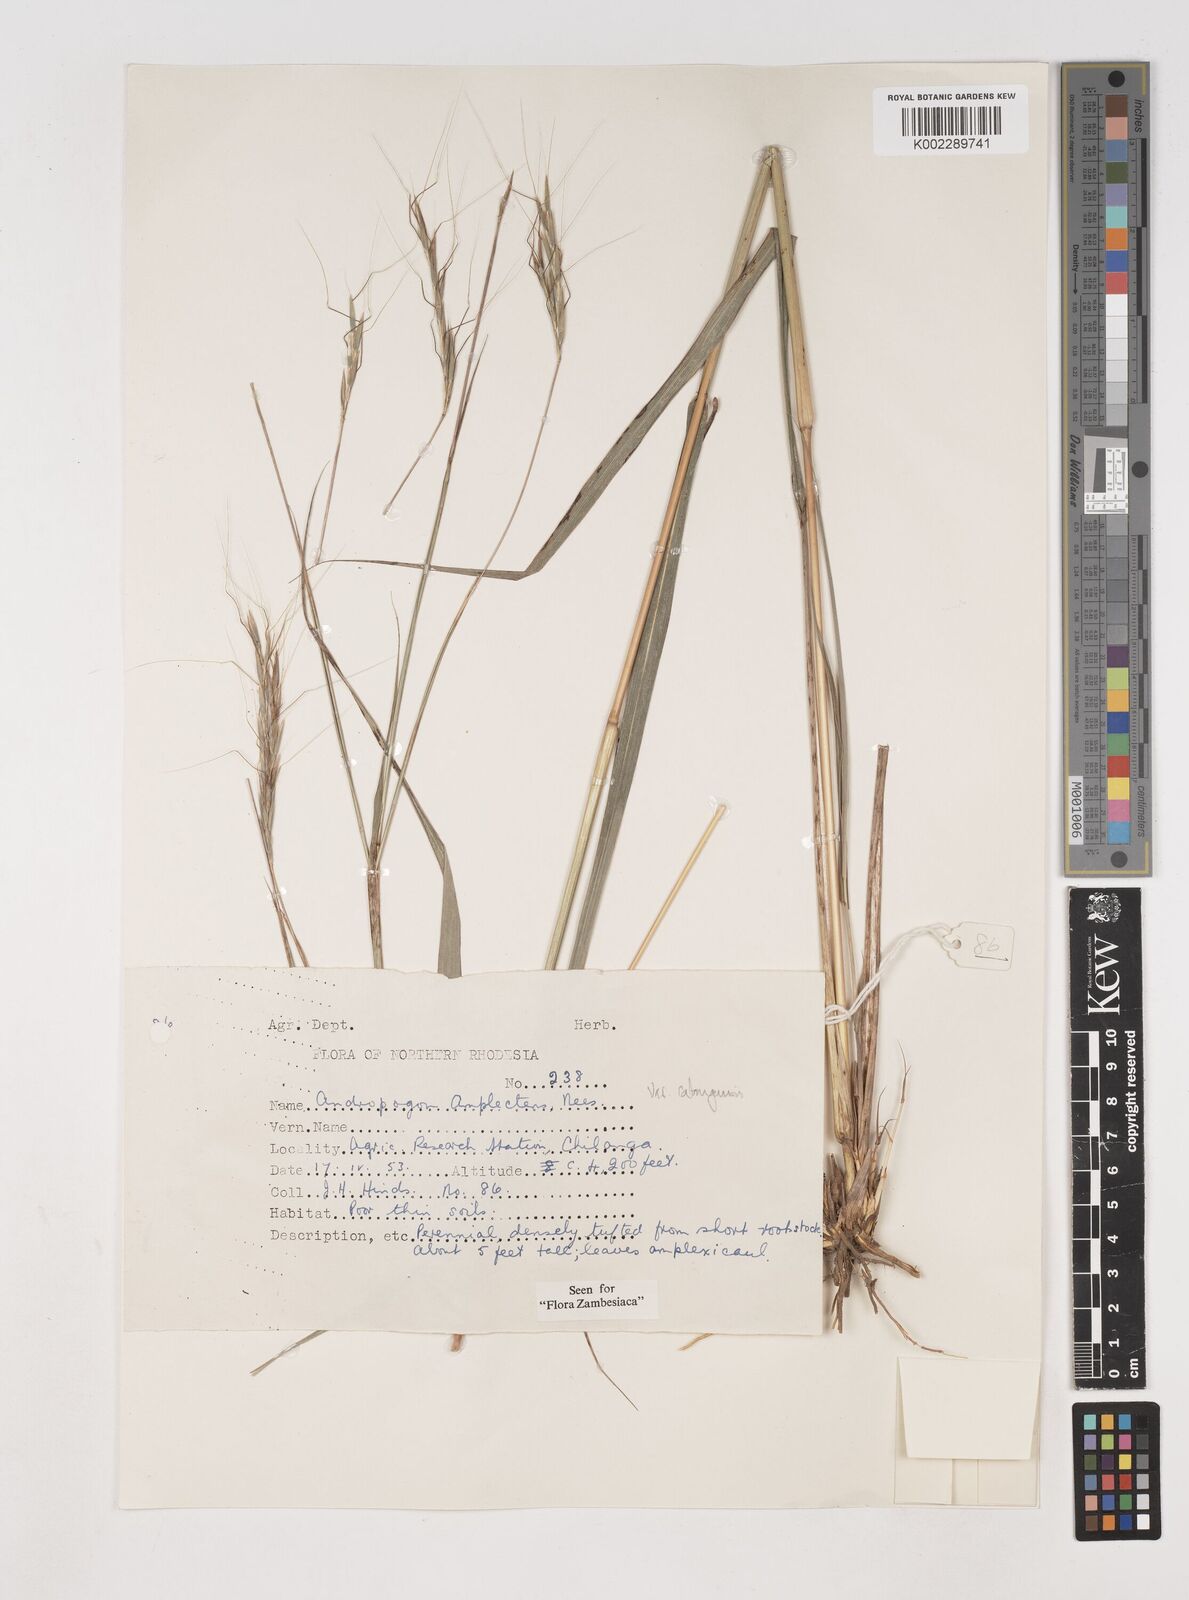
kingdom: Plantae
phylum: Tracheophyta
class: Liliopsida
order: Poales
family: Poaceae
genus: Diheteropogon
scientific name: Diheteropogon amplectens
